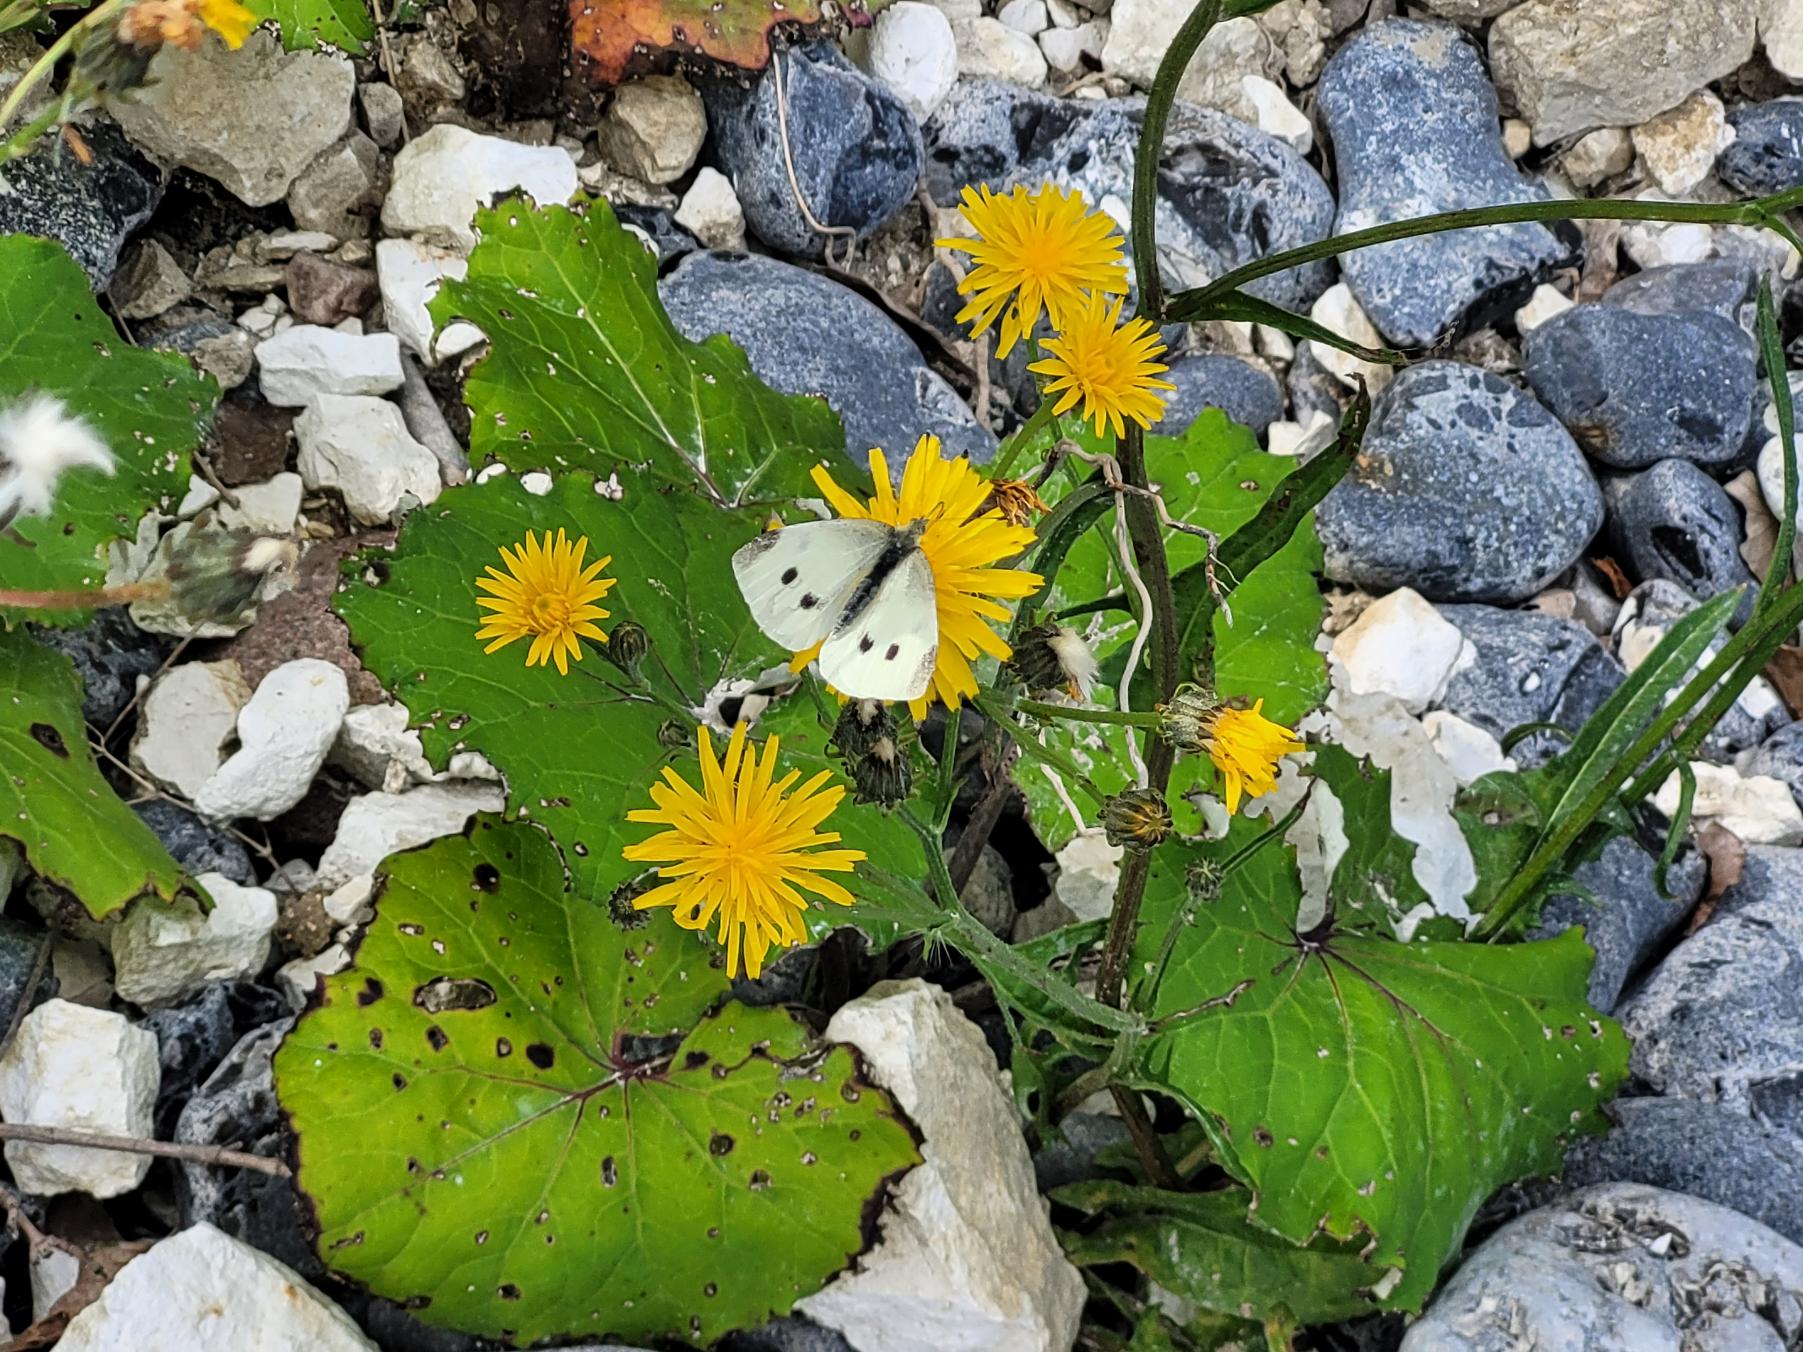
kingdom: Animalia
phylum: Arthropoda
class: Insecta
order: Lepidoptera
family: Pieridae
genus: Pieris
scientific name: Pieris rapae
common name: Lille kålsommerfugl
